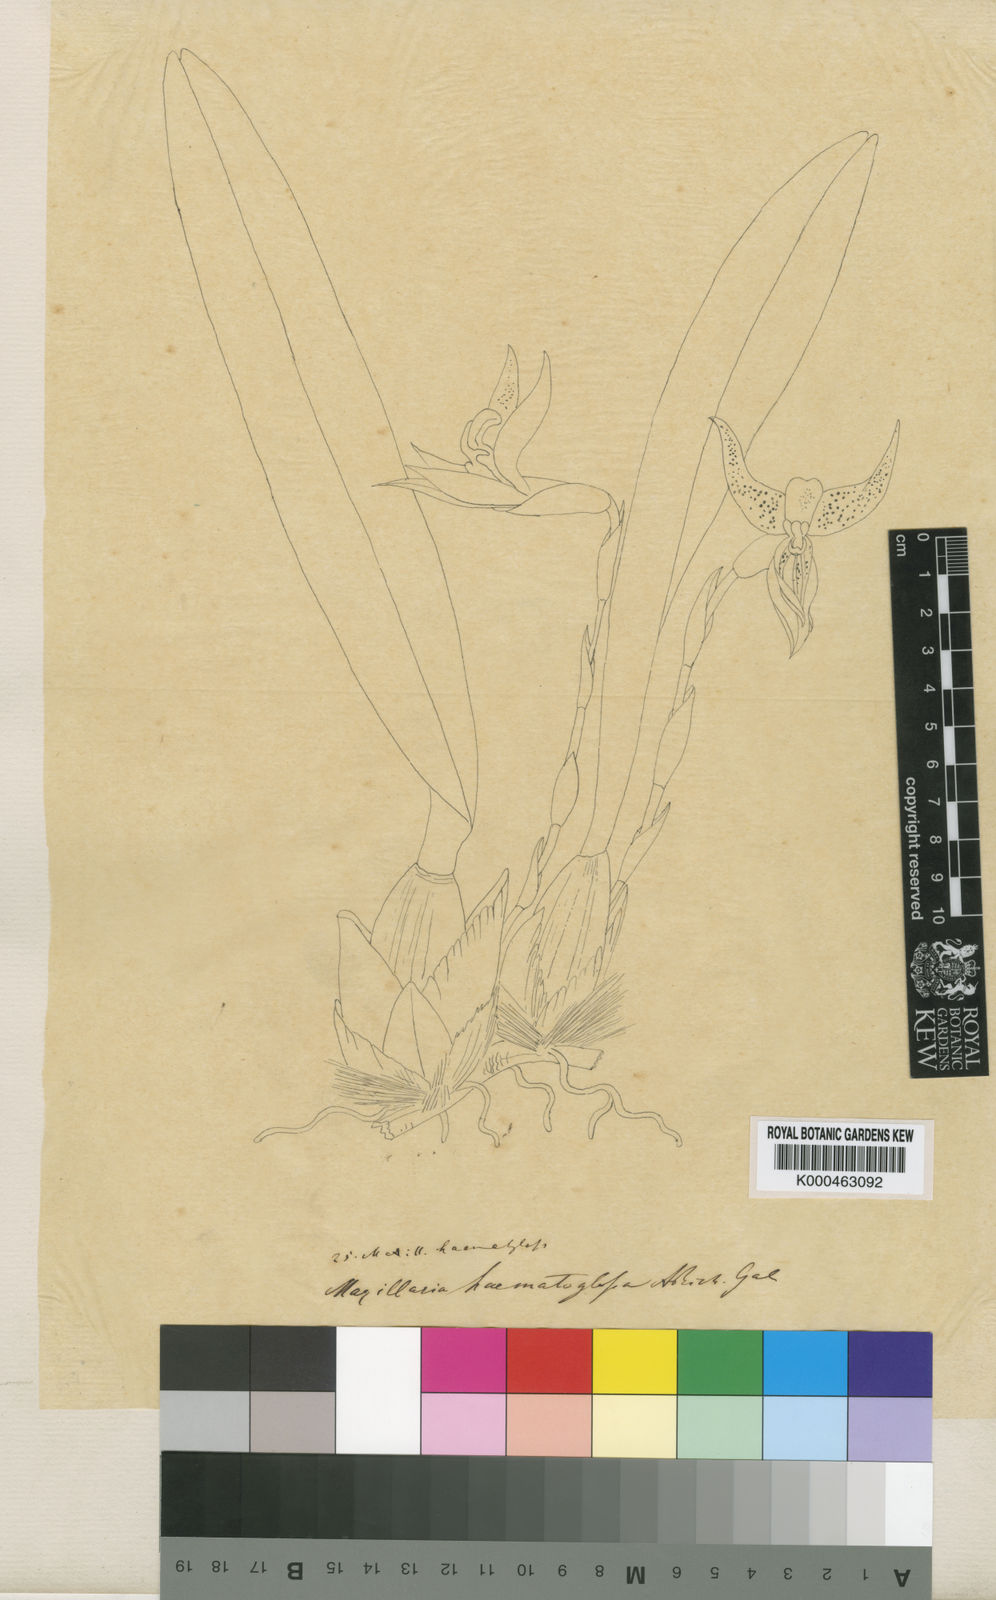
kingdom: Plantae
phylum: Tracheophyta
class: Liliopsida
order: Asparagales
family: Orchidaceae
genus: Maxillaria
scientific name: Maxillaria hematoglossa
